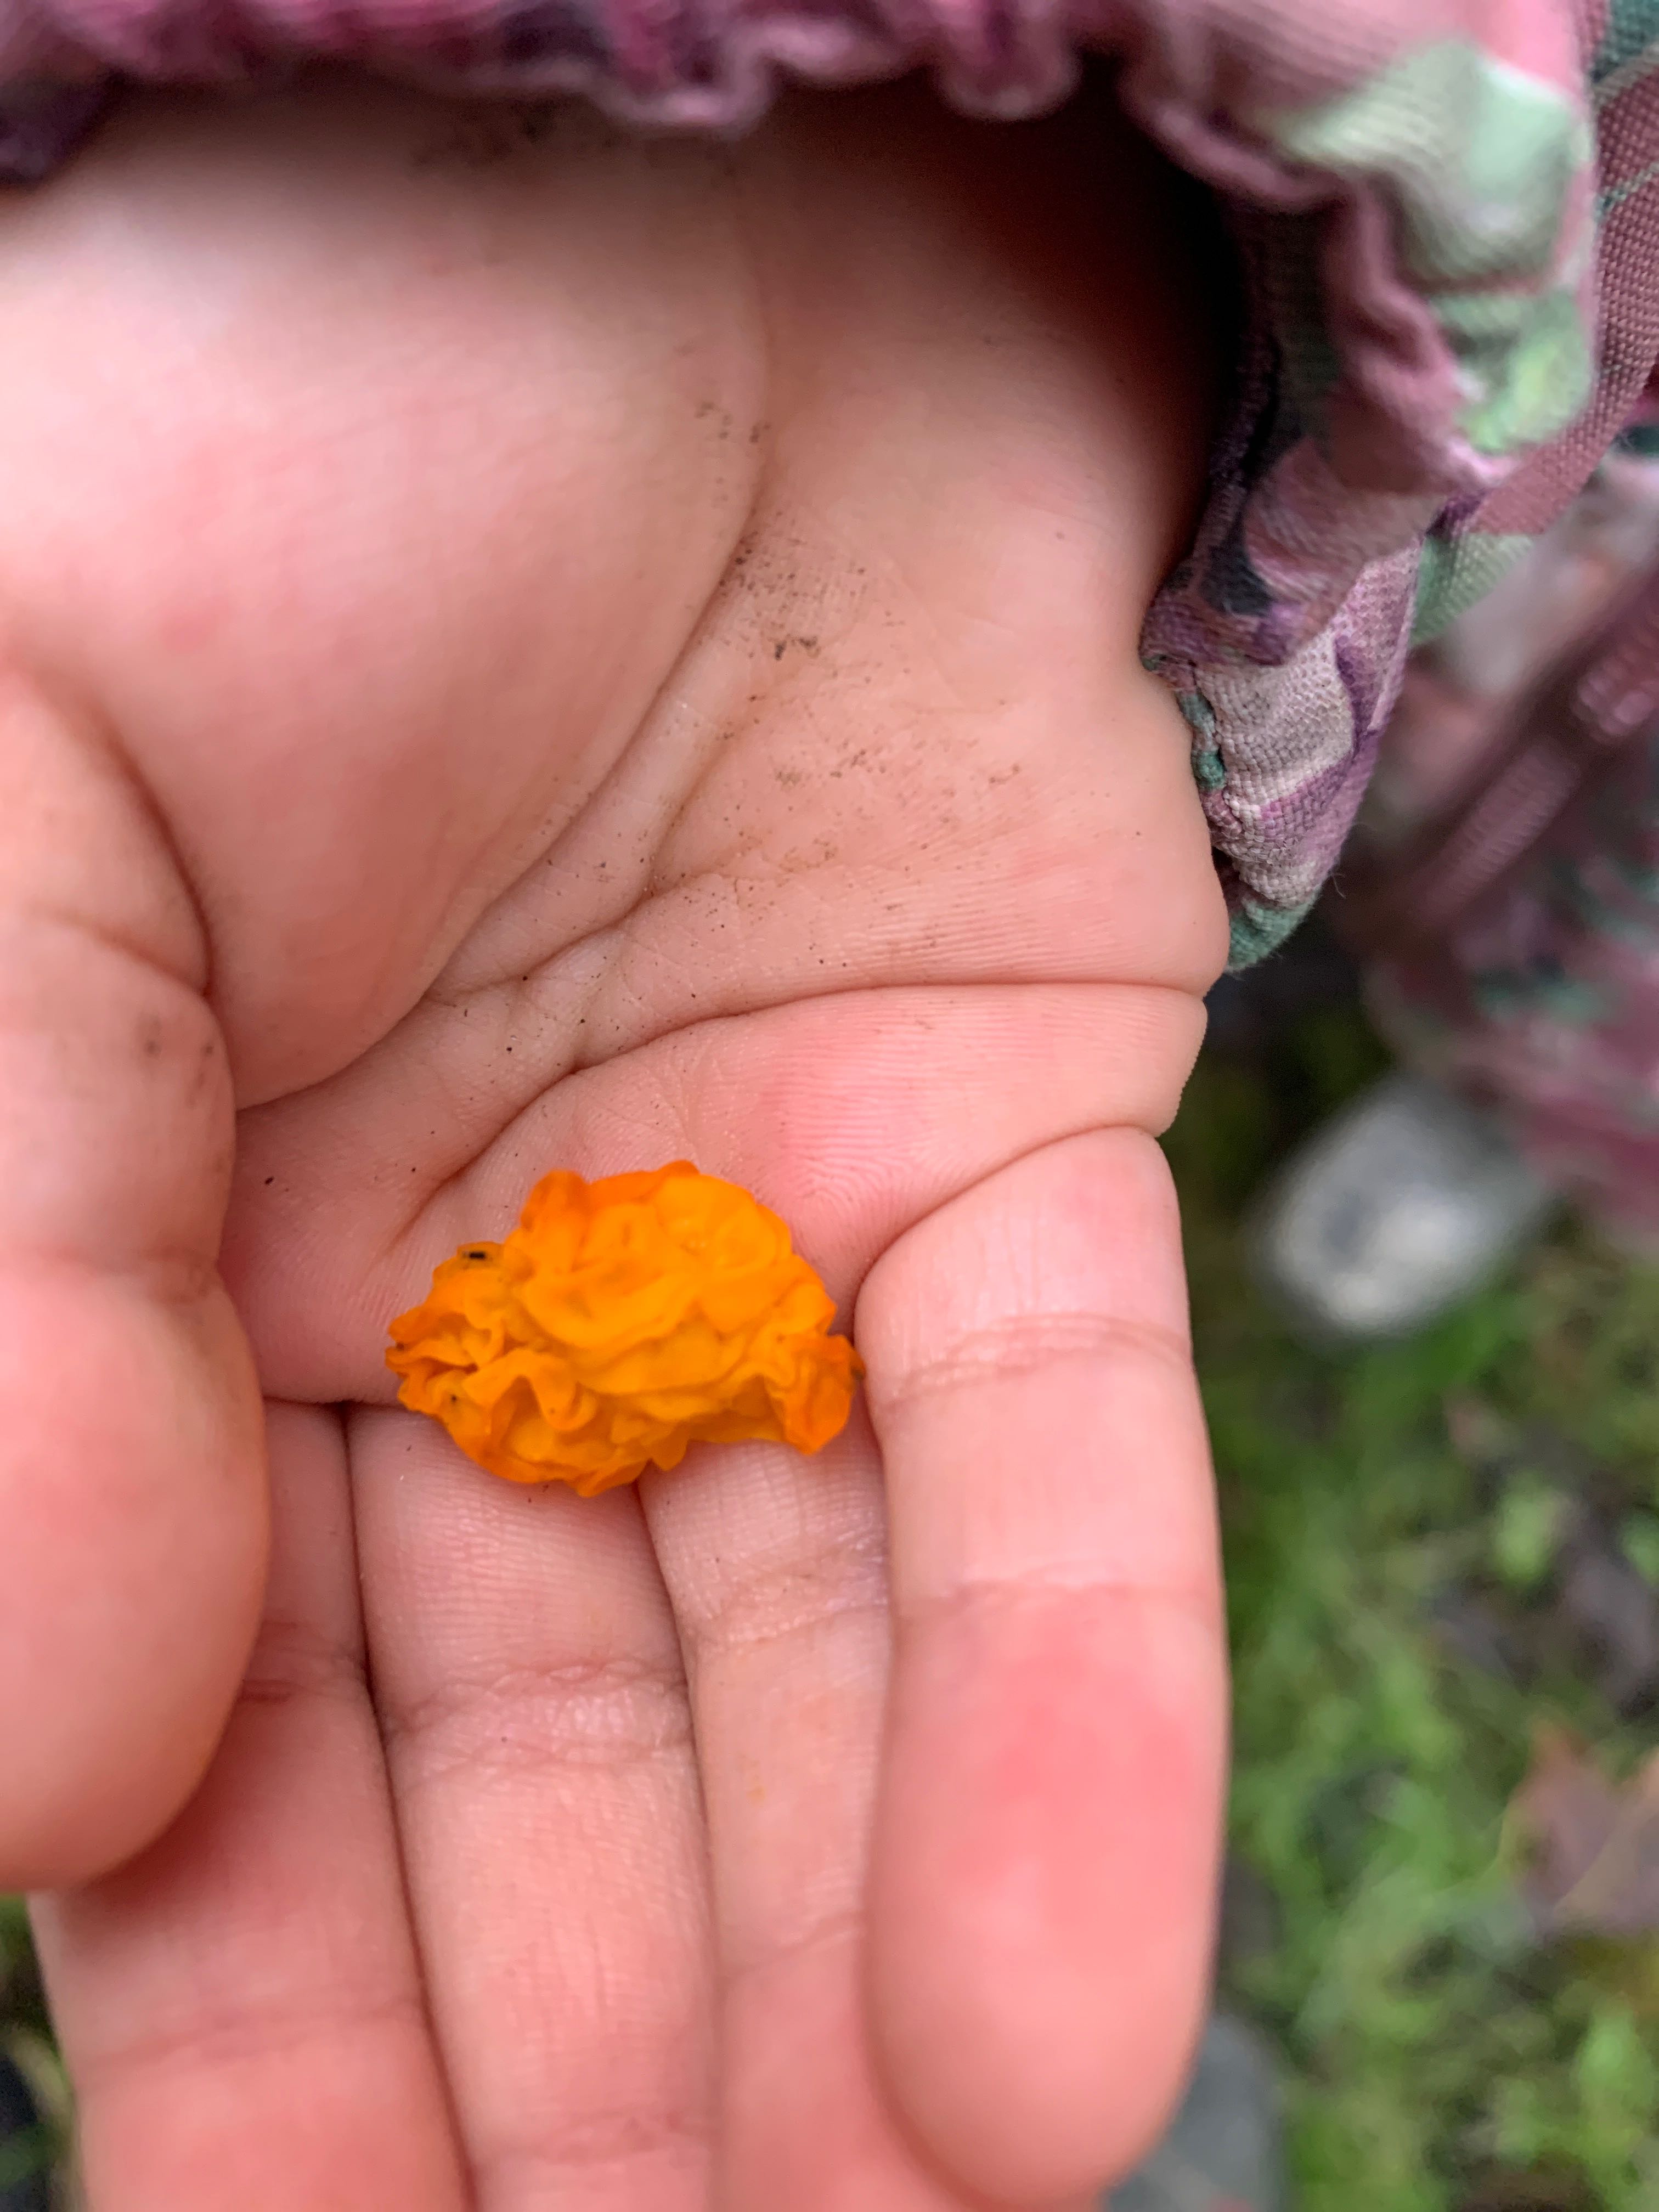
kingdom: Fungi
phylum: Basidiomycota
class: Tremellomycetes
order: Tremellales
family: Tremellaceae
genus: Tremella
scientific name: Tremella mesenterica
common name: gul bævresvamp
